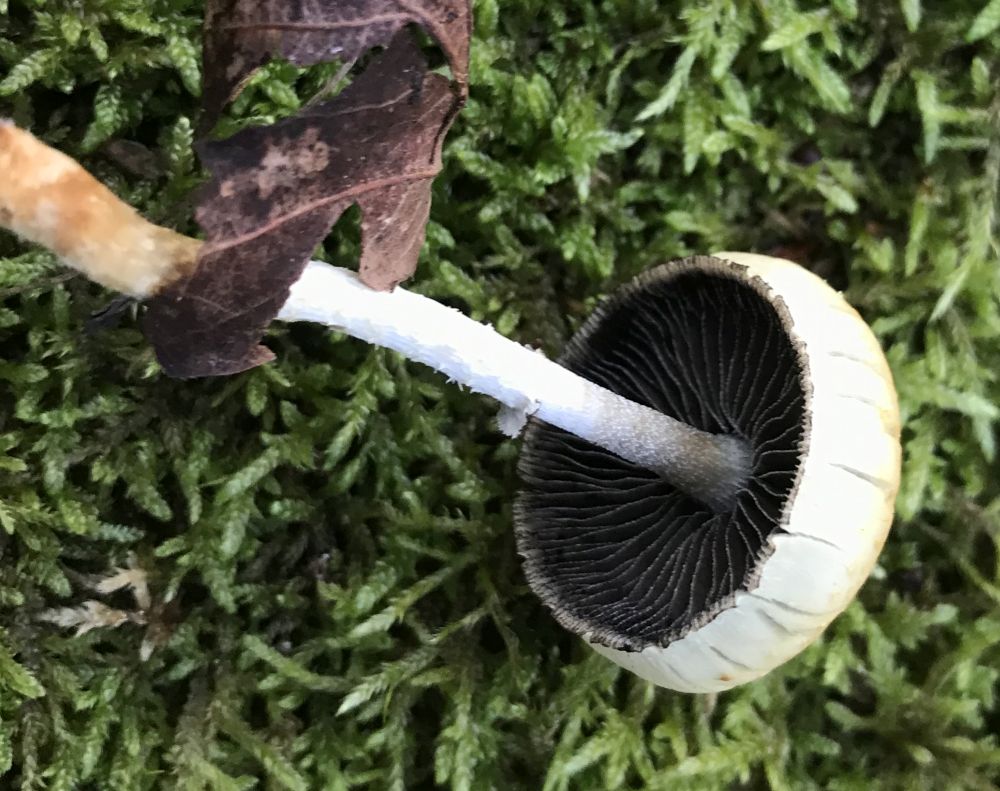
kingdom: Fungi
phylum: Basidiomycota
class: Agaricomycetes
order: Agaricales
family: Strophariaceae
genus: Leratiomyces
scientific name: Leratiomyces squamosus
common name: skællet bredblad
